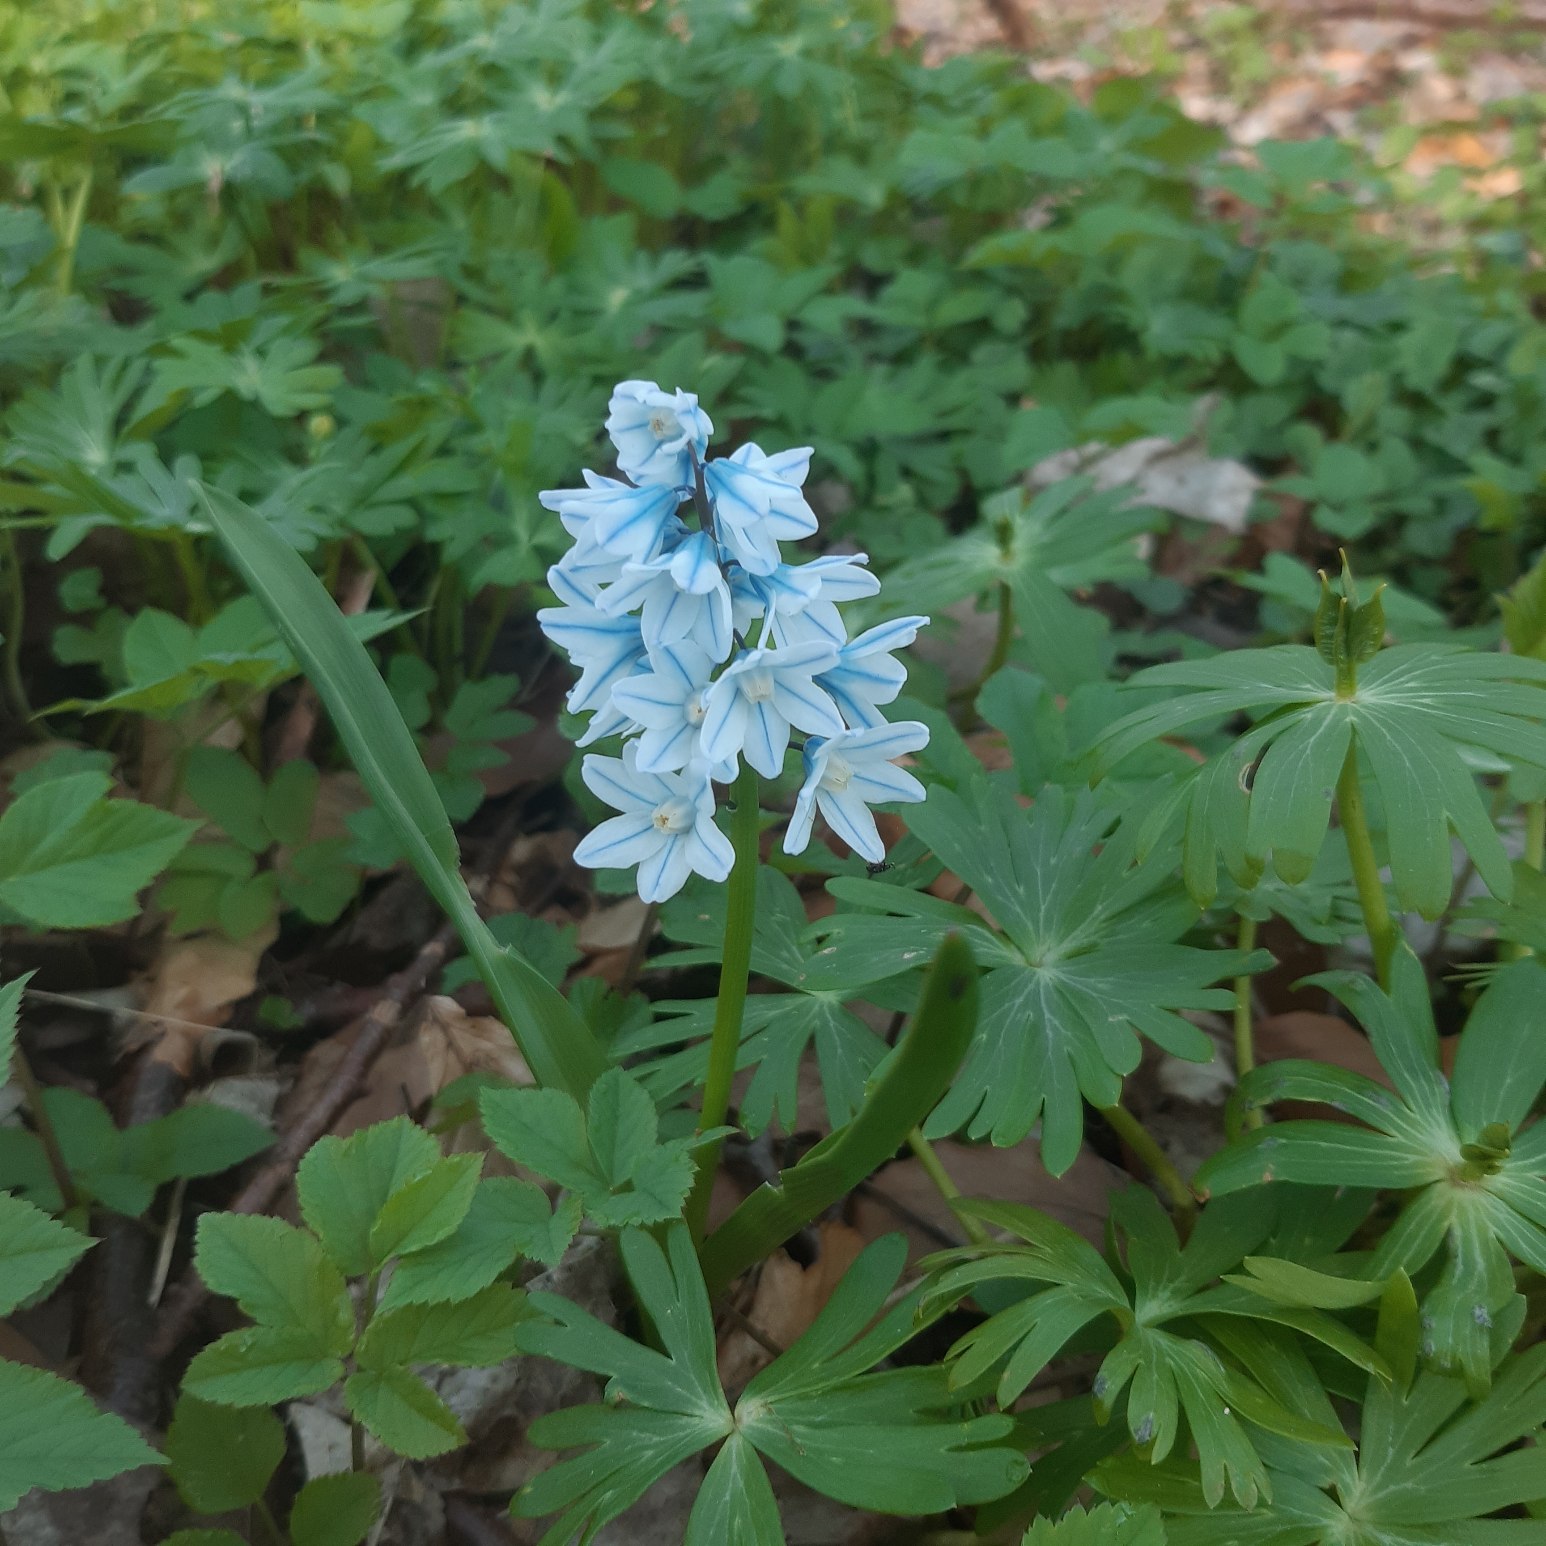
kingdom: Plantae
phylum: Tracheophyta
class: Liliopsida
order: Asparagales
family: Asparagaceae
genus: Puschkinia
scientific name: Puschkinia scilloides
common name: Porcelænshyacint
